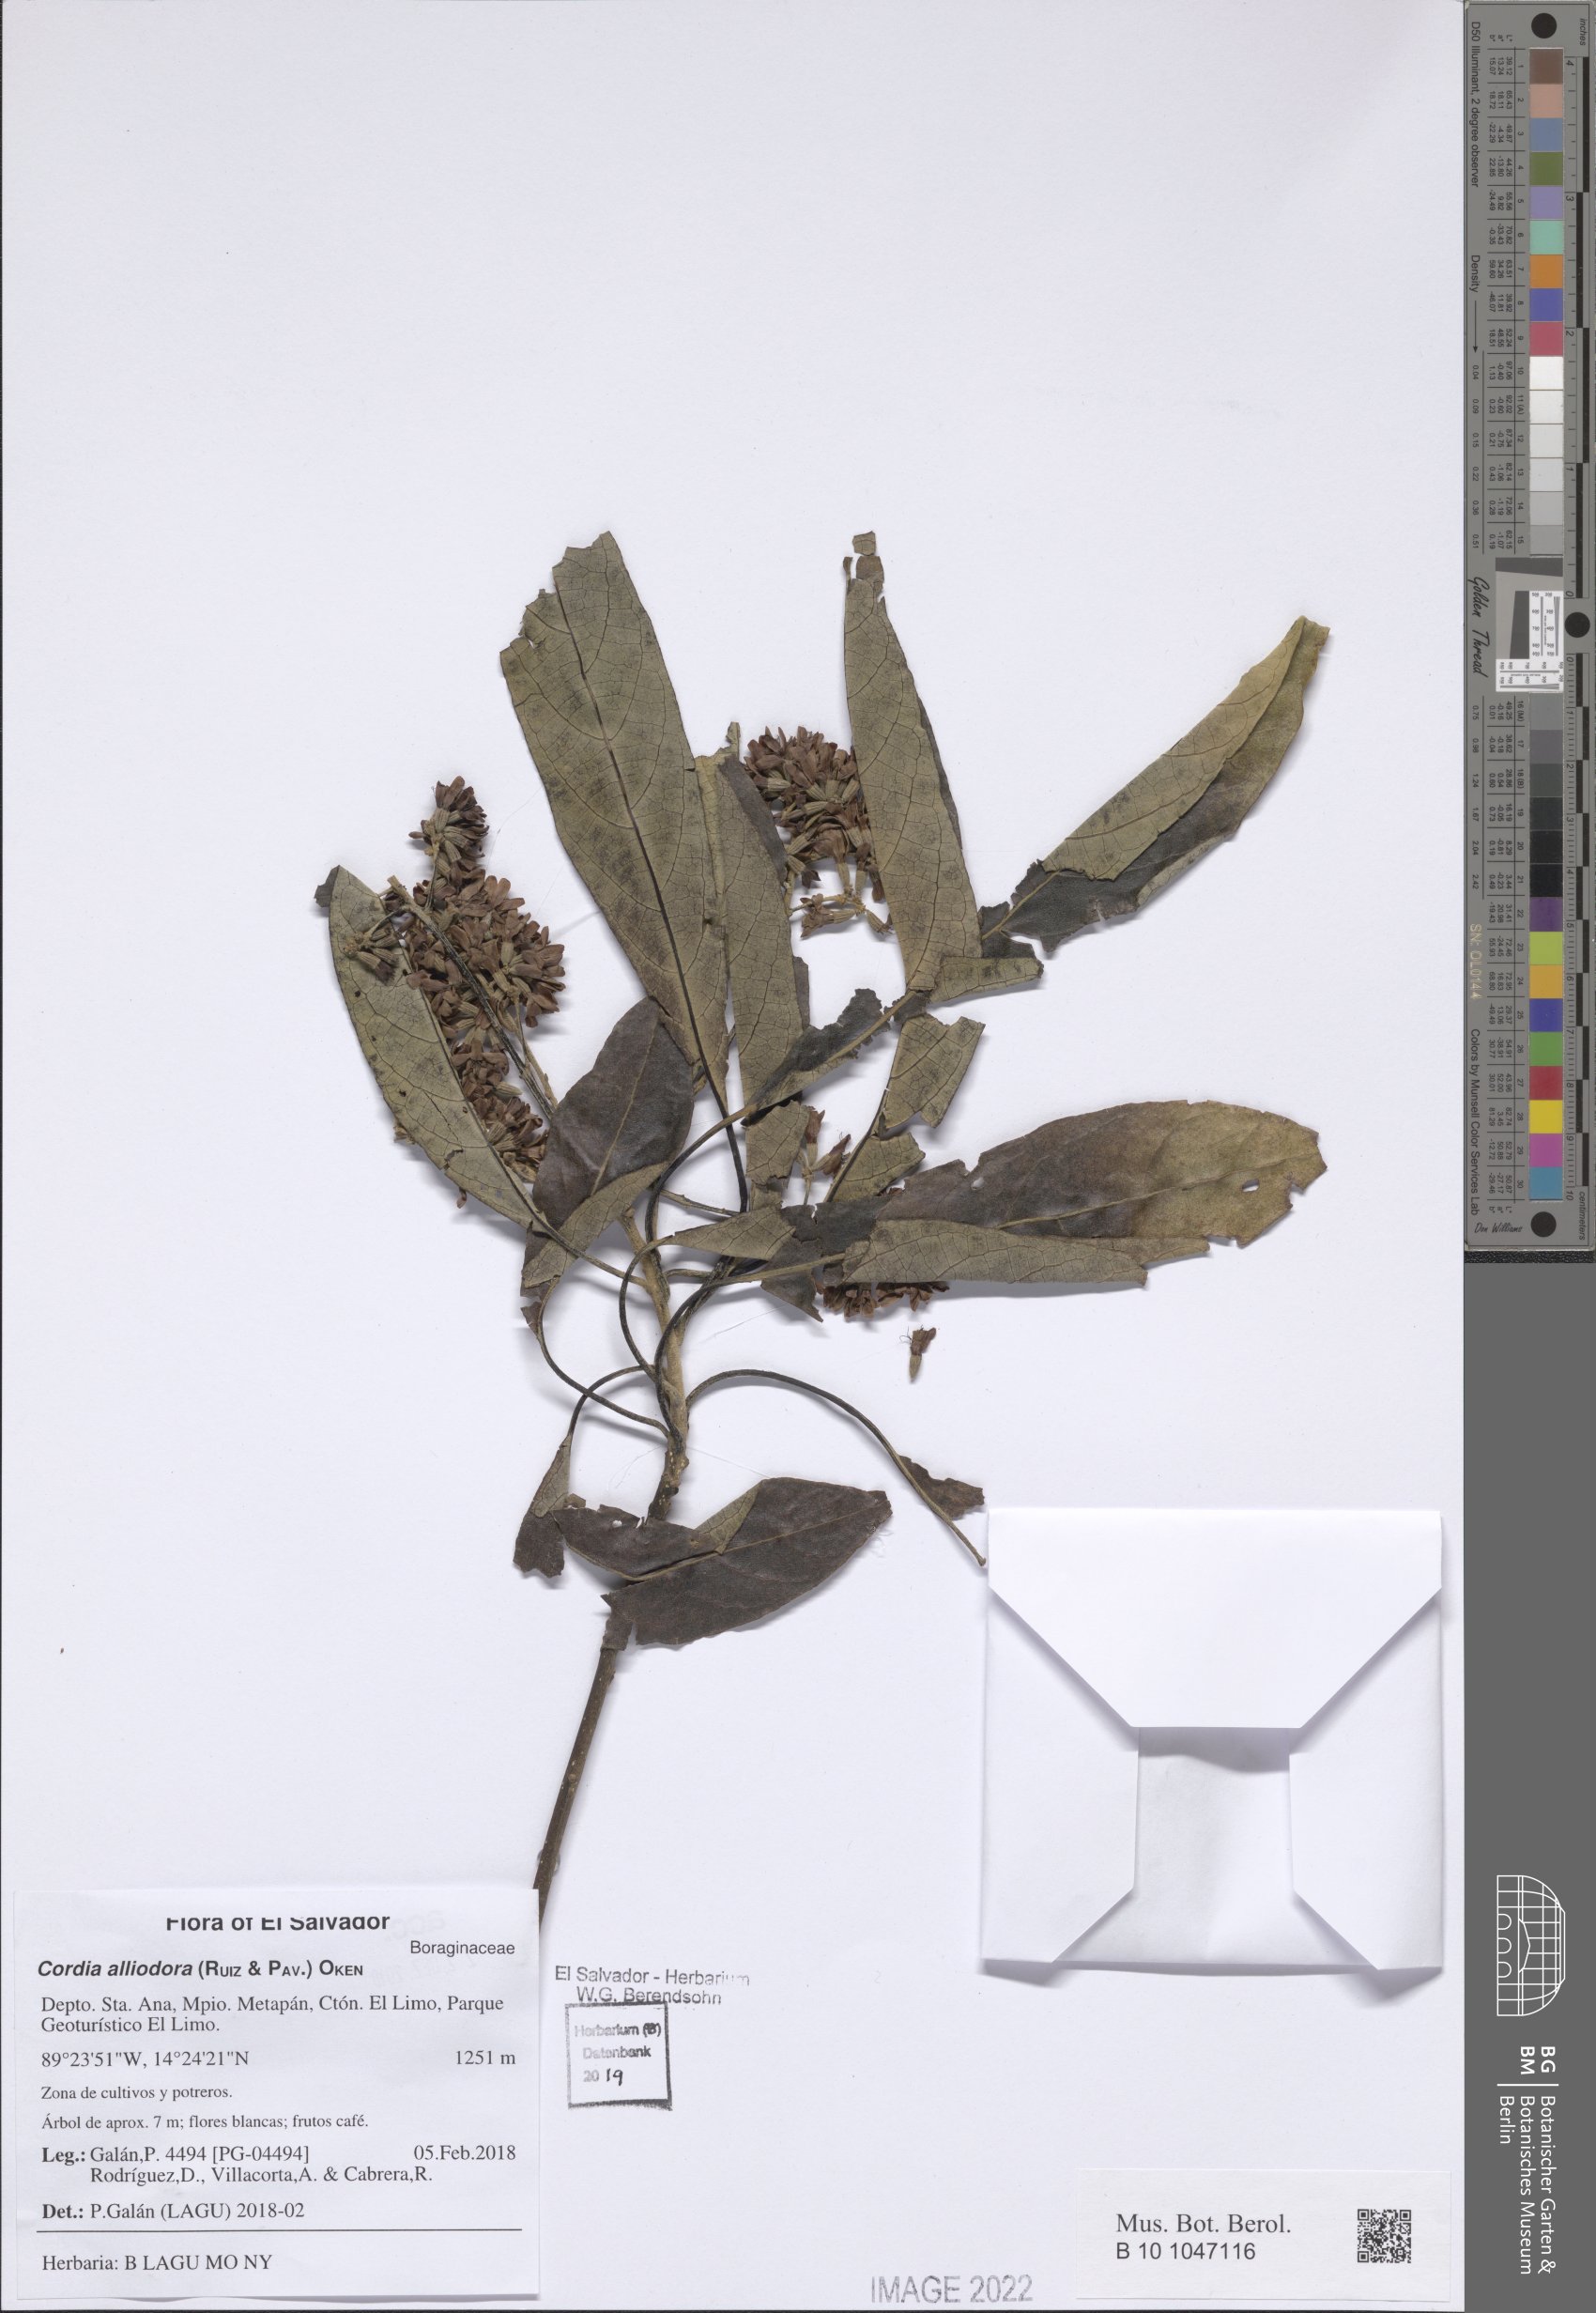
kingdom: Plantae
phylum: Tracheophyta
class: Magnoliopsida
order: Boraginales
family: Cordiaceae
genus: Cordia
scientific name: Cordia alliodora
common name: Spanish elm
